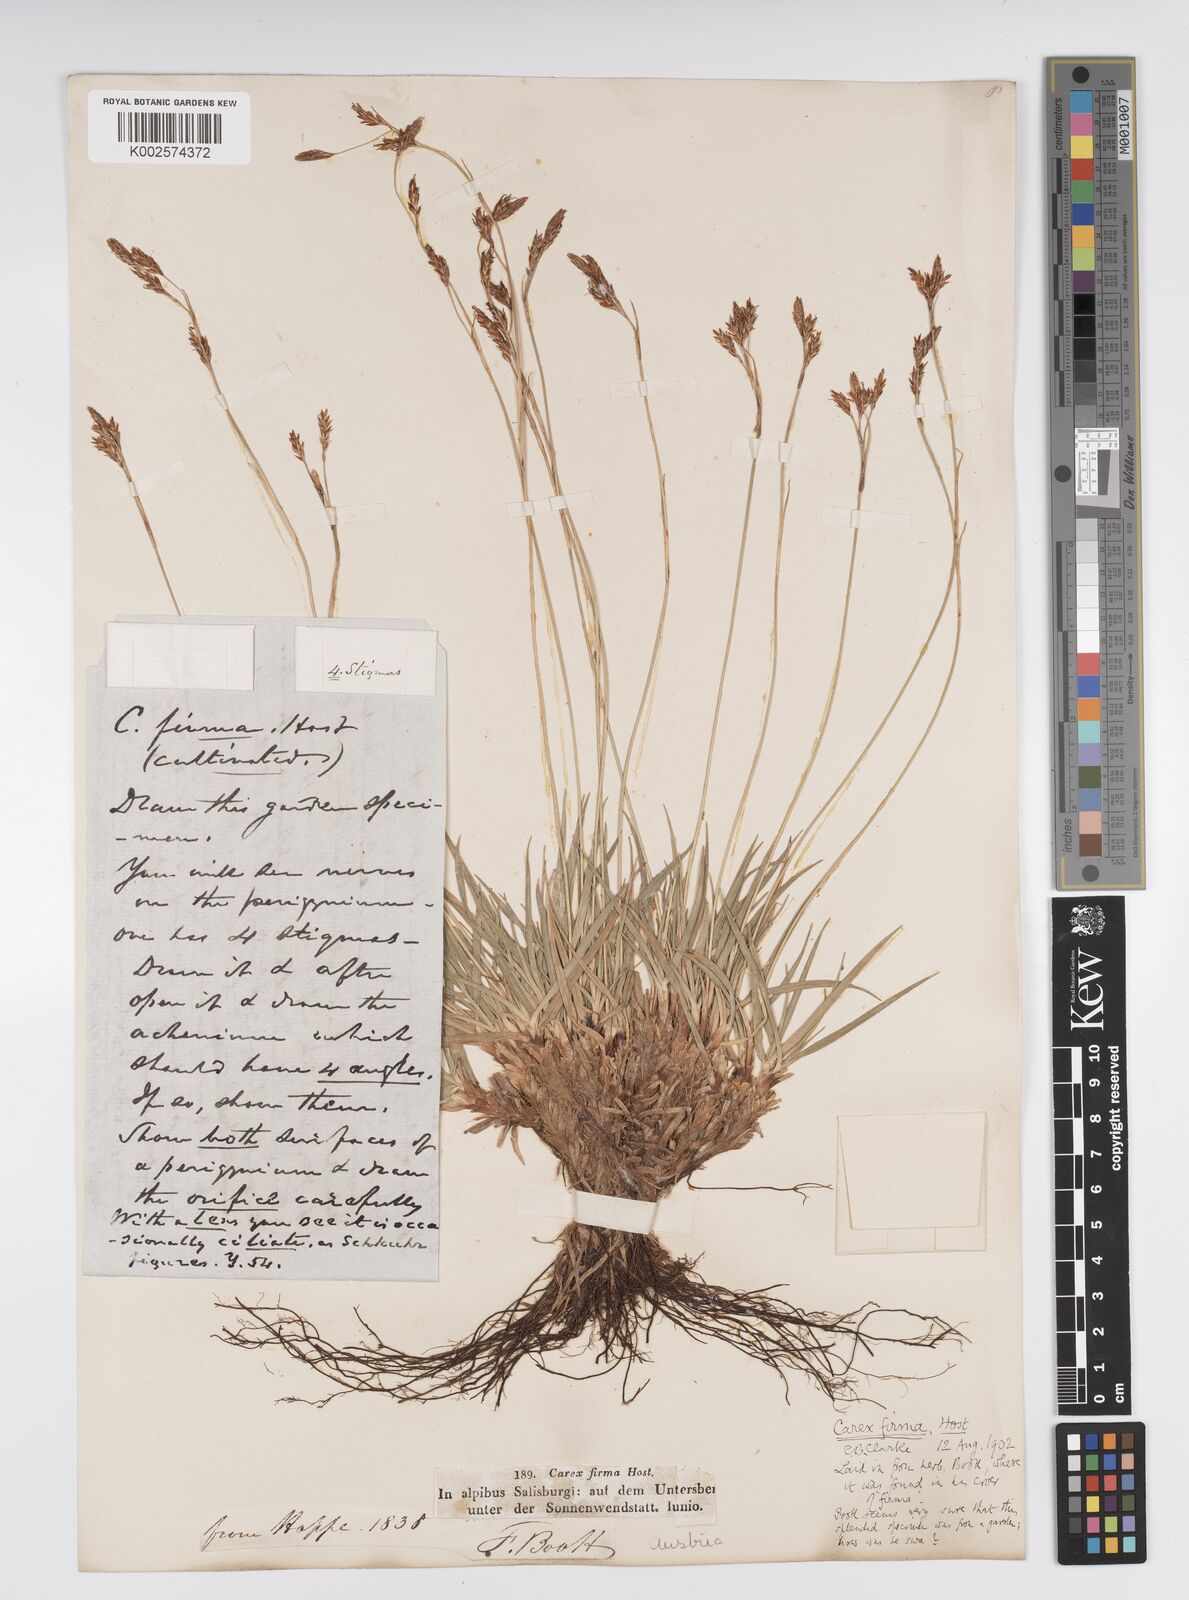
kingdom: Plantae
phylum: Tracheophyta
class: Liliopsida
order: Poales
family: Cyperaceae
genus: Carex
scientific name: Carex firma
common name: Dwarf pillow sedge
